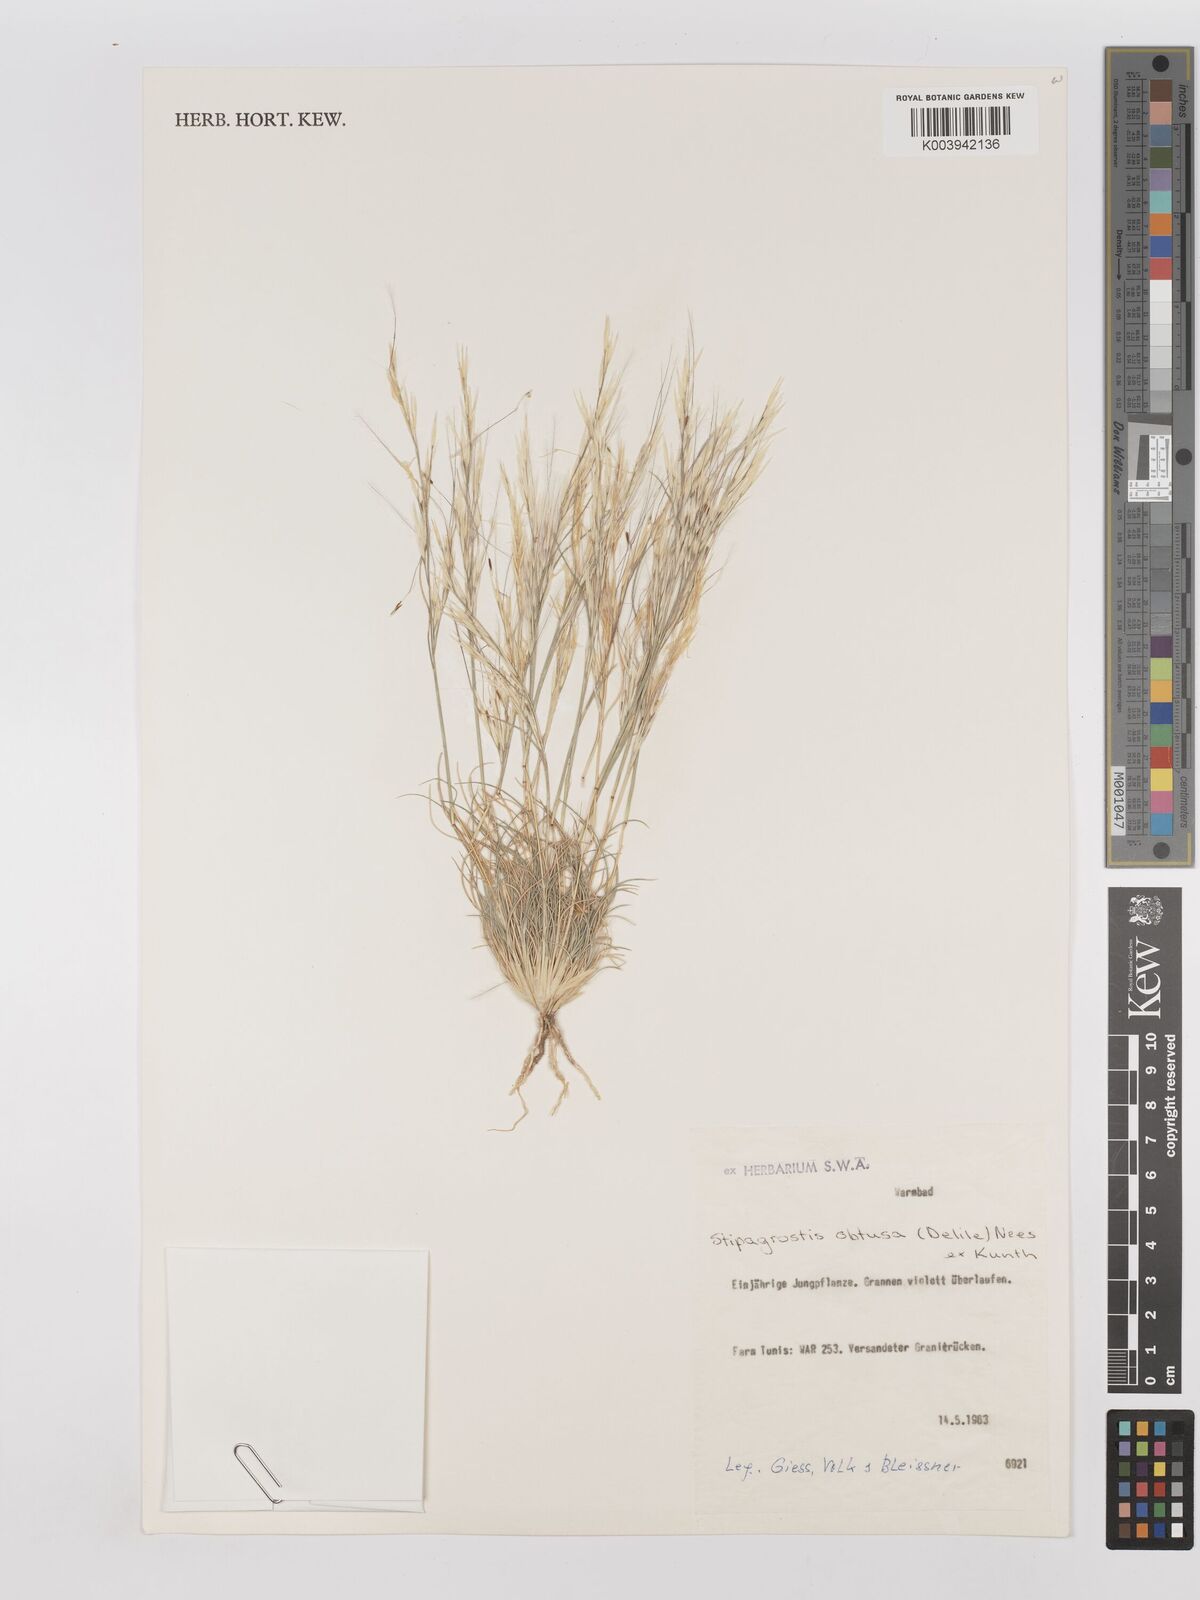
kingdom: Plantae
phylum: Tracheophyta
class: Liliopsida
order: Poales
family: Poaceae
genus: Stipagrostis
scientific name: Stipagrostis obtusa
